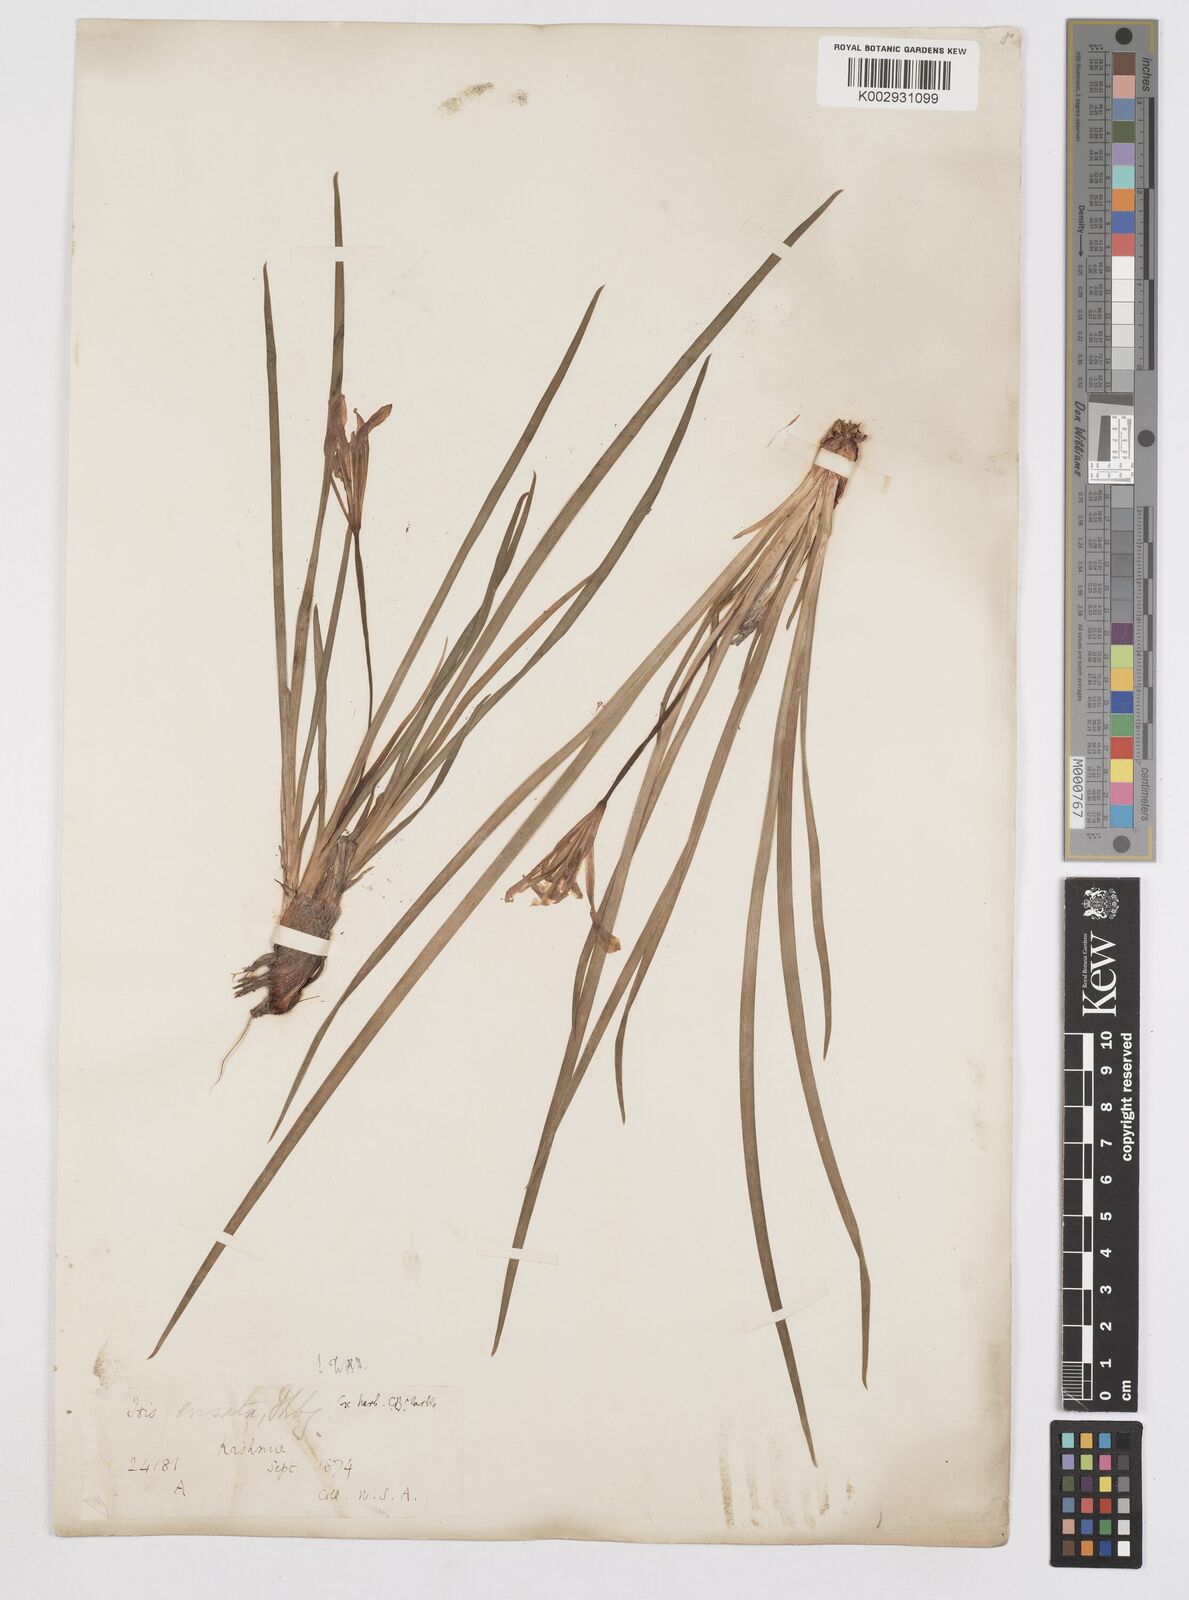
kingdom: Plantae
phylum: Tracheophyta
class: Liliopsida
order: Asparagales
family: Iridaceae
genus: Iris
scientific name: Iris ensata
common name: Beaked iris
